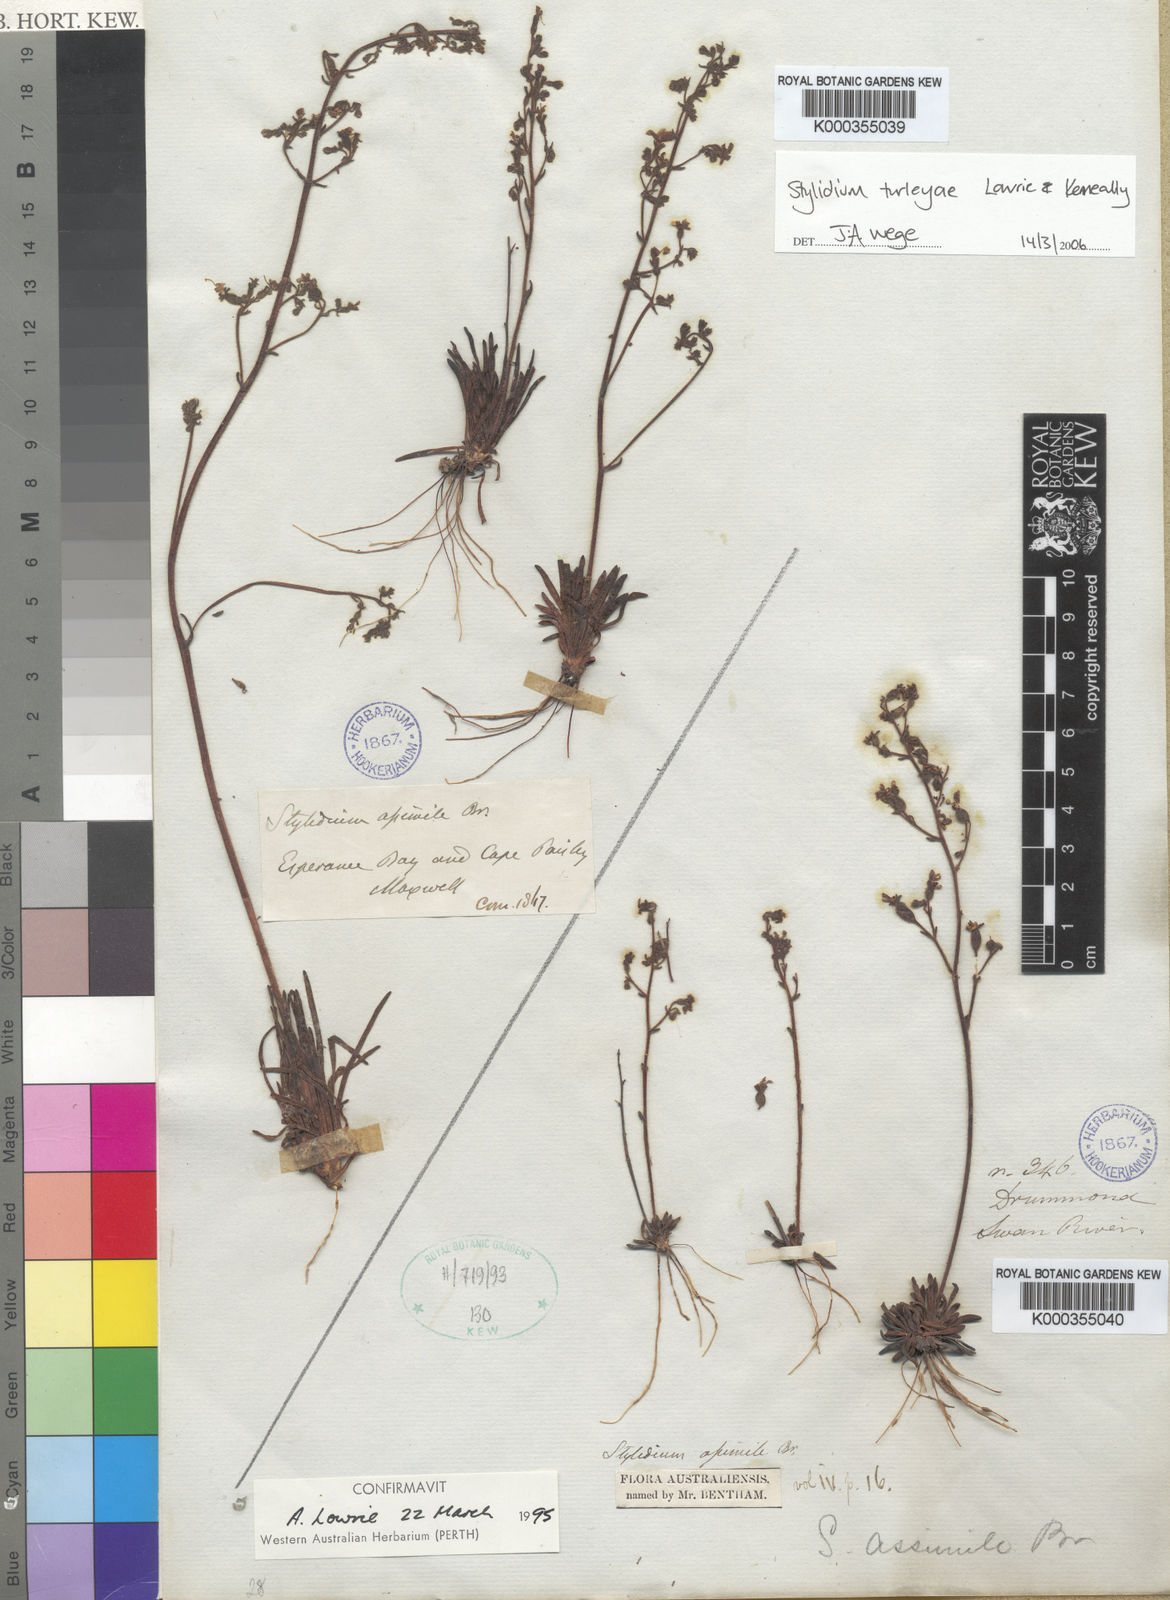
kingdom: Plantae
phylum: Tracheophyta
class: Magnoliopsida
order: Asterales
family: Stylidiaceae
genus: Stylidium
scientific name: Stylidium turleyae
